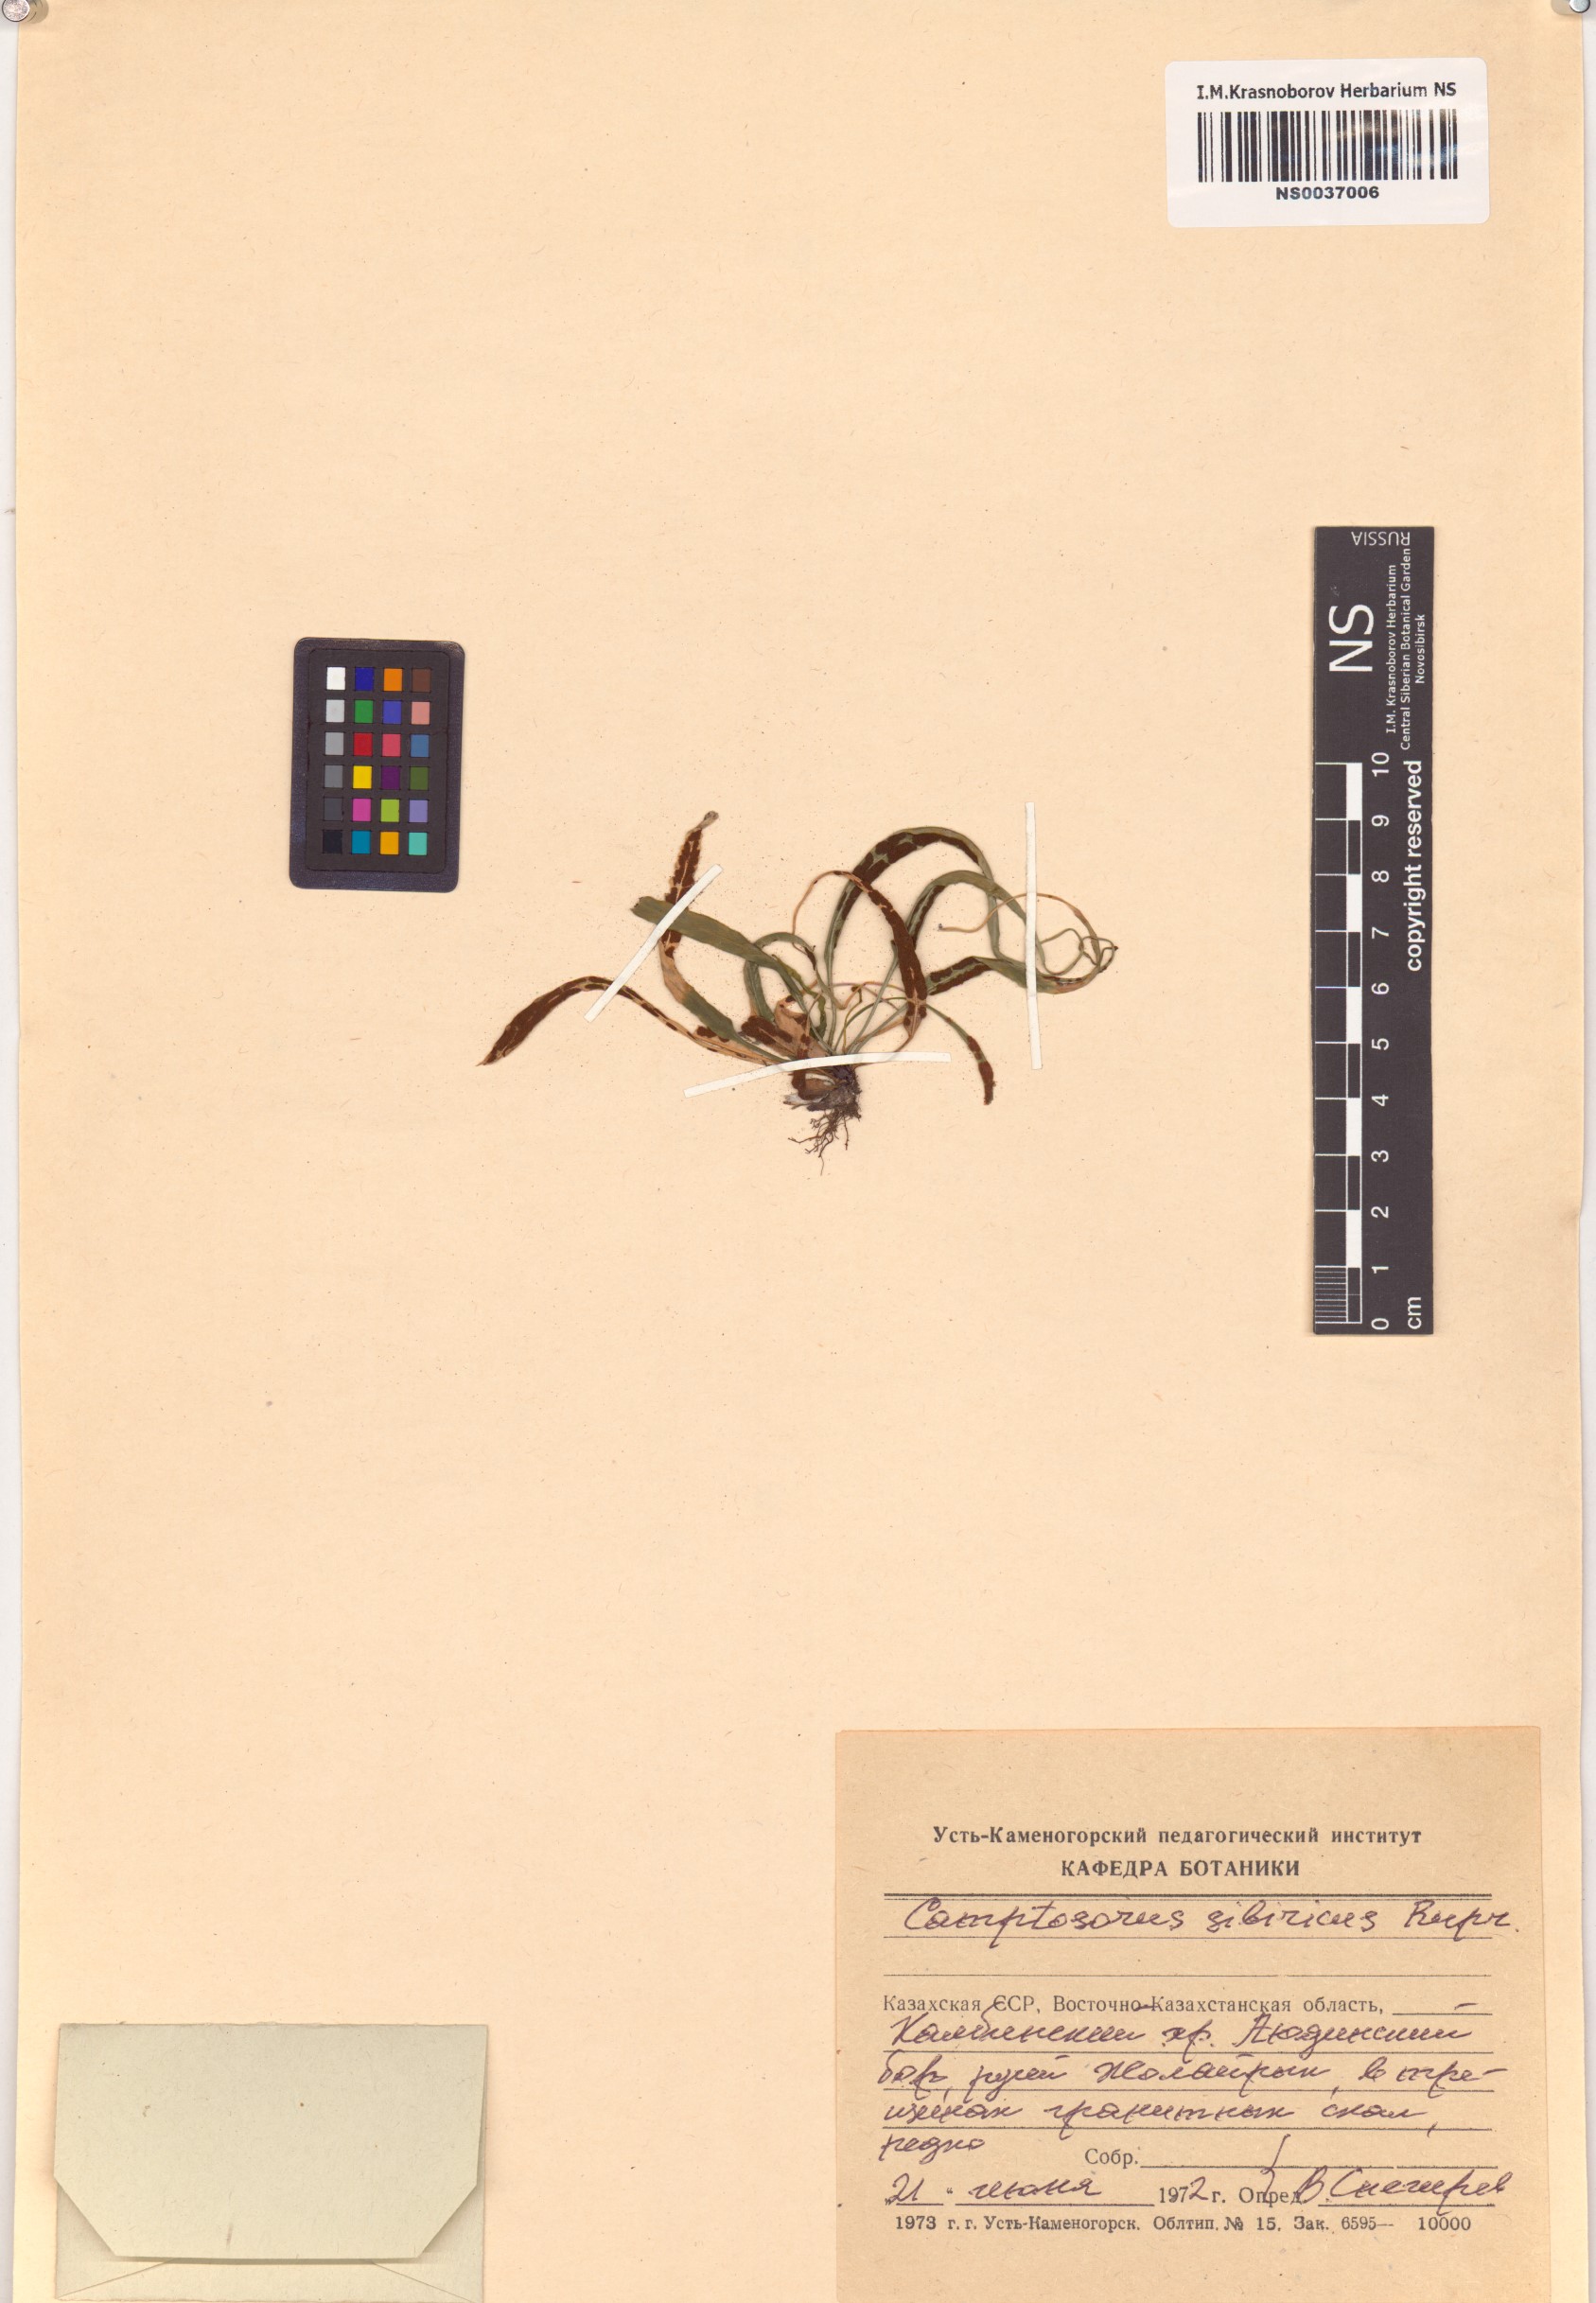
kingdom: Plantae
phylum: Tracheophyta
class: Polypodiopsida
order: Polypodiales
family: Aspleniaceae
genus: Asplenium
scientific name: Asplenium ruprechtii
